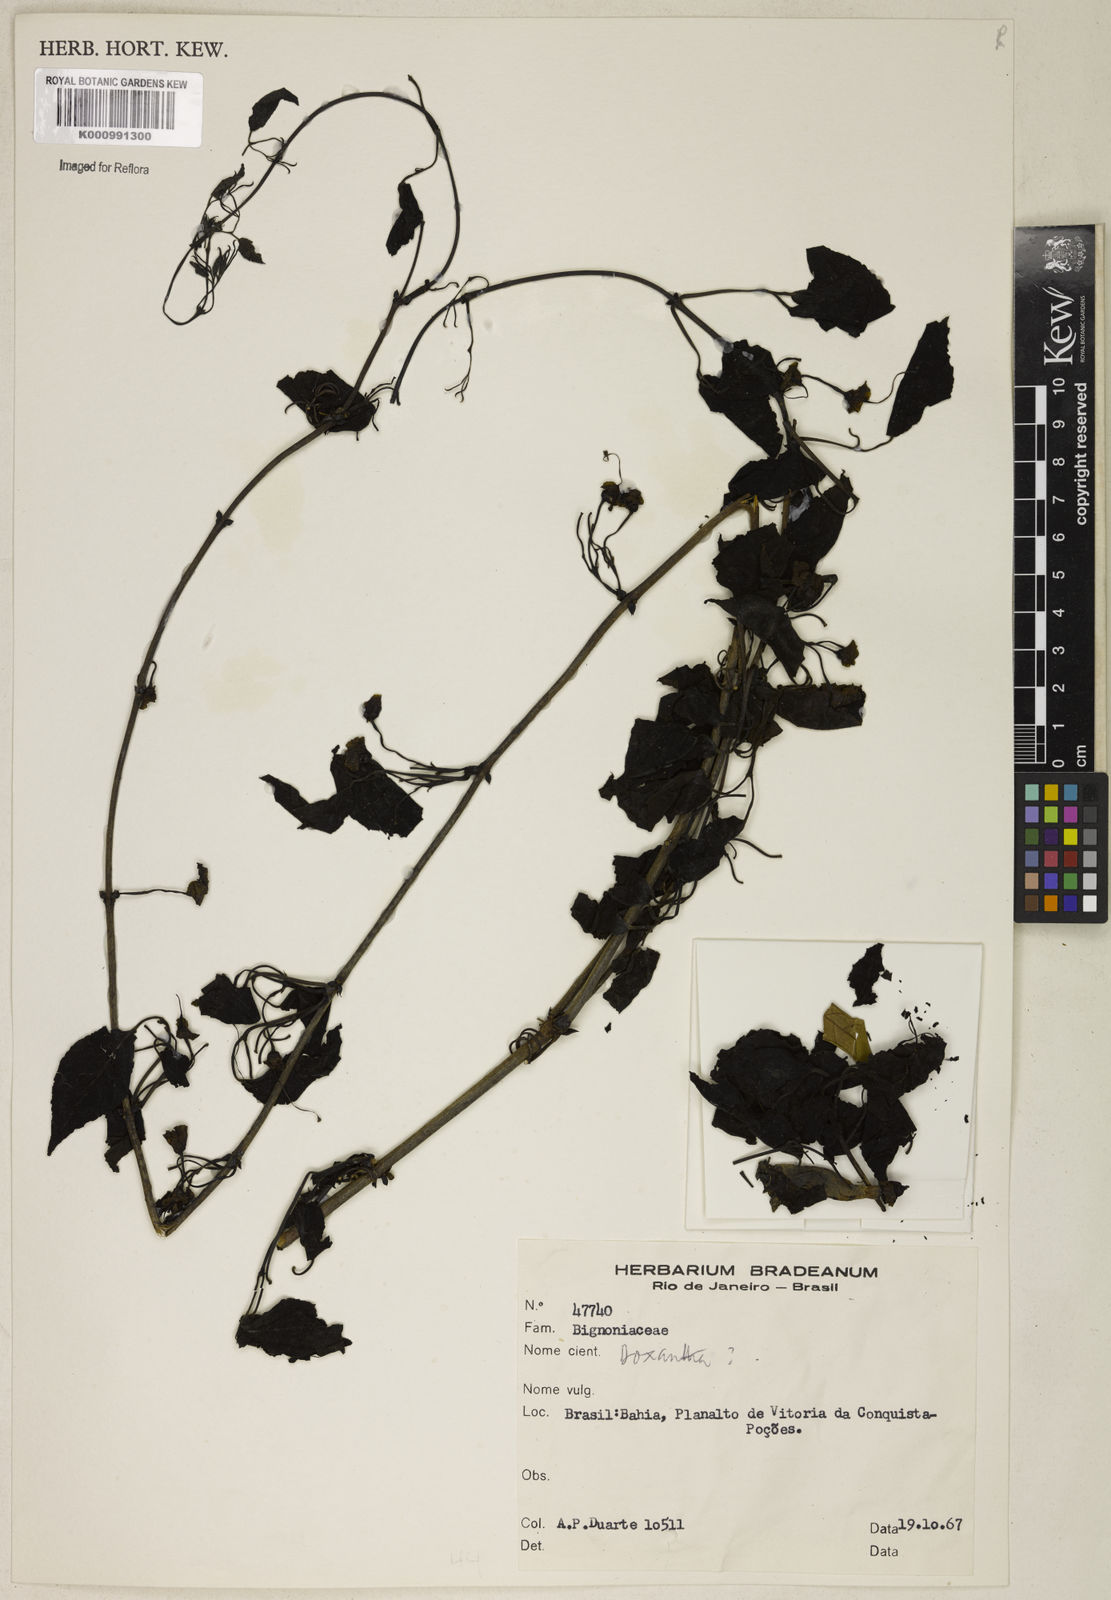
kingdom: Animalia
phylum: Chordata
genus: Macfadyena
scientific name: Macfadyena
